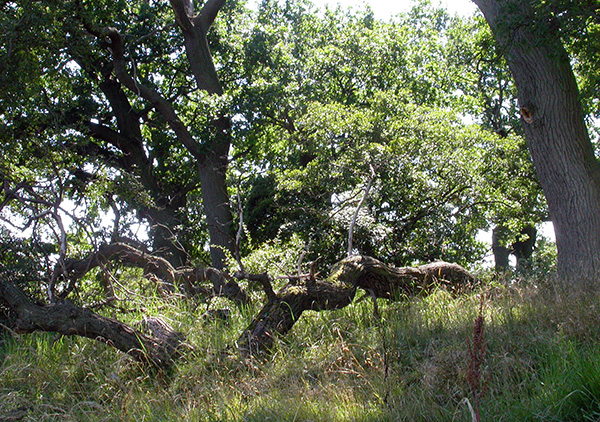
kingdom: Fungi
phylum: Ascomycota
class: Sordariomycetes
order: Xylariales
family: Graphostromataceae
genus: Obolarina
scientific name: Obolarina dryophila
